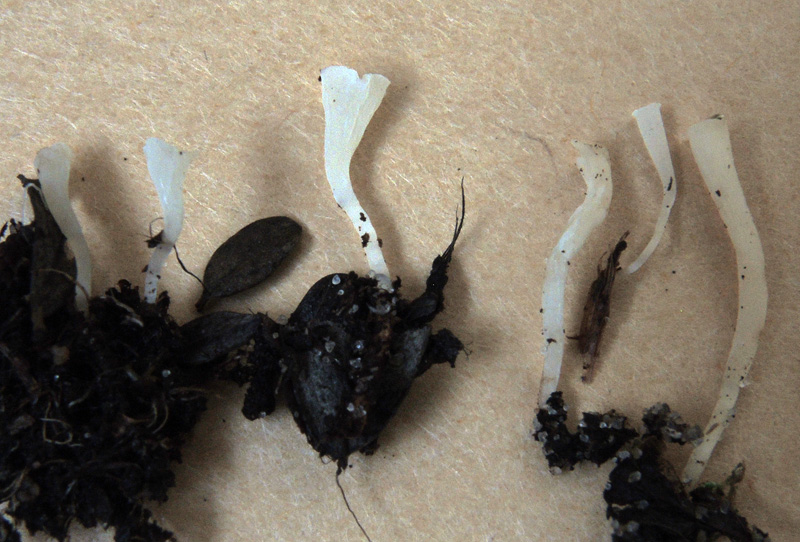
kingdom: Fungi
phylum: Basidiomycota
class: Agaricomycetes
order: Agaricales
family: Clavariaceae
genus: Clavicorona
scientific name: Clavicorona taxophila
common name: trompetkølle
